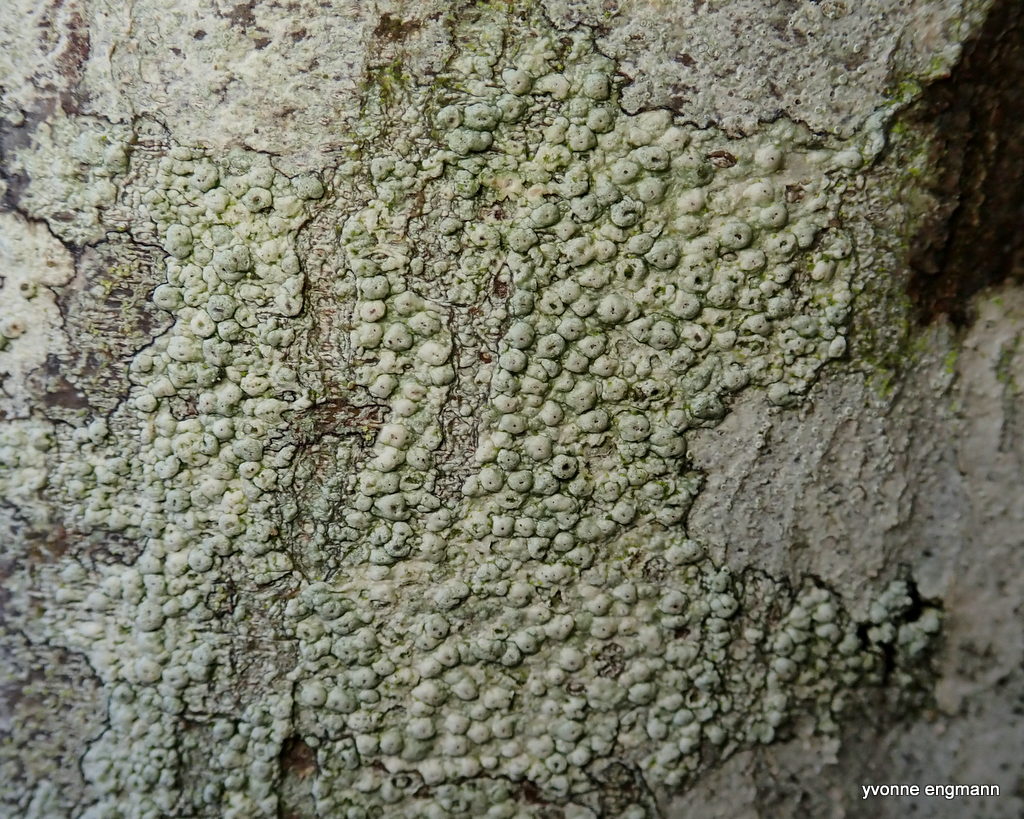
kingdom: Fungi
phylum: Ascomycota
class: Lecanoromycetes
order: Pertusariales
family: Pertusariaceae
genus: Pertusaria
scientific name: Pertusaria hymenea
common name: åben prikvortelav
